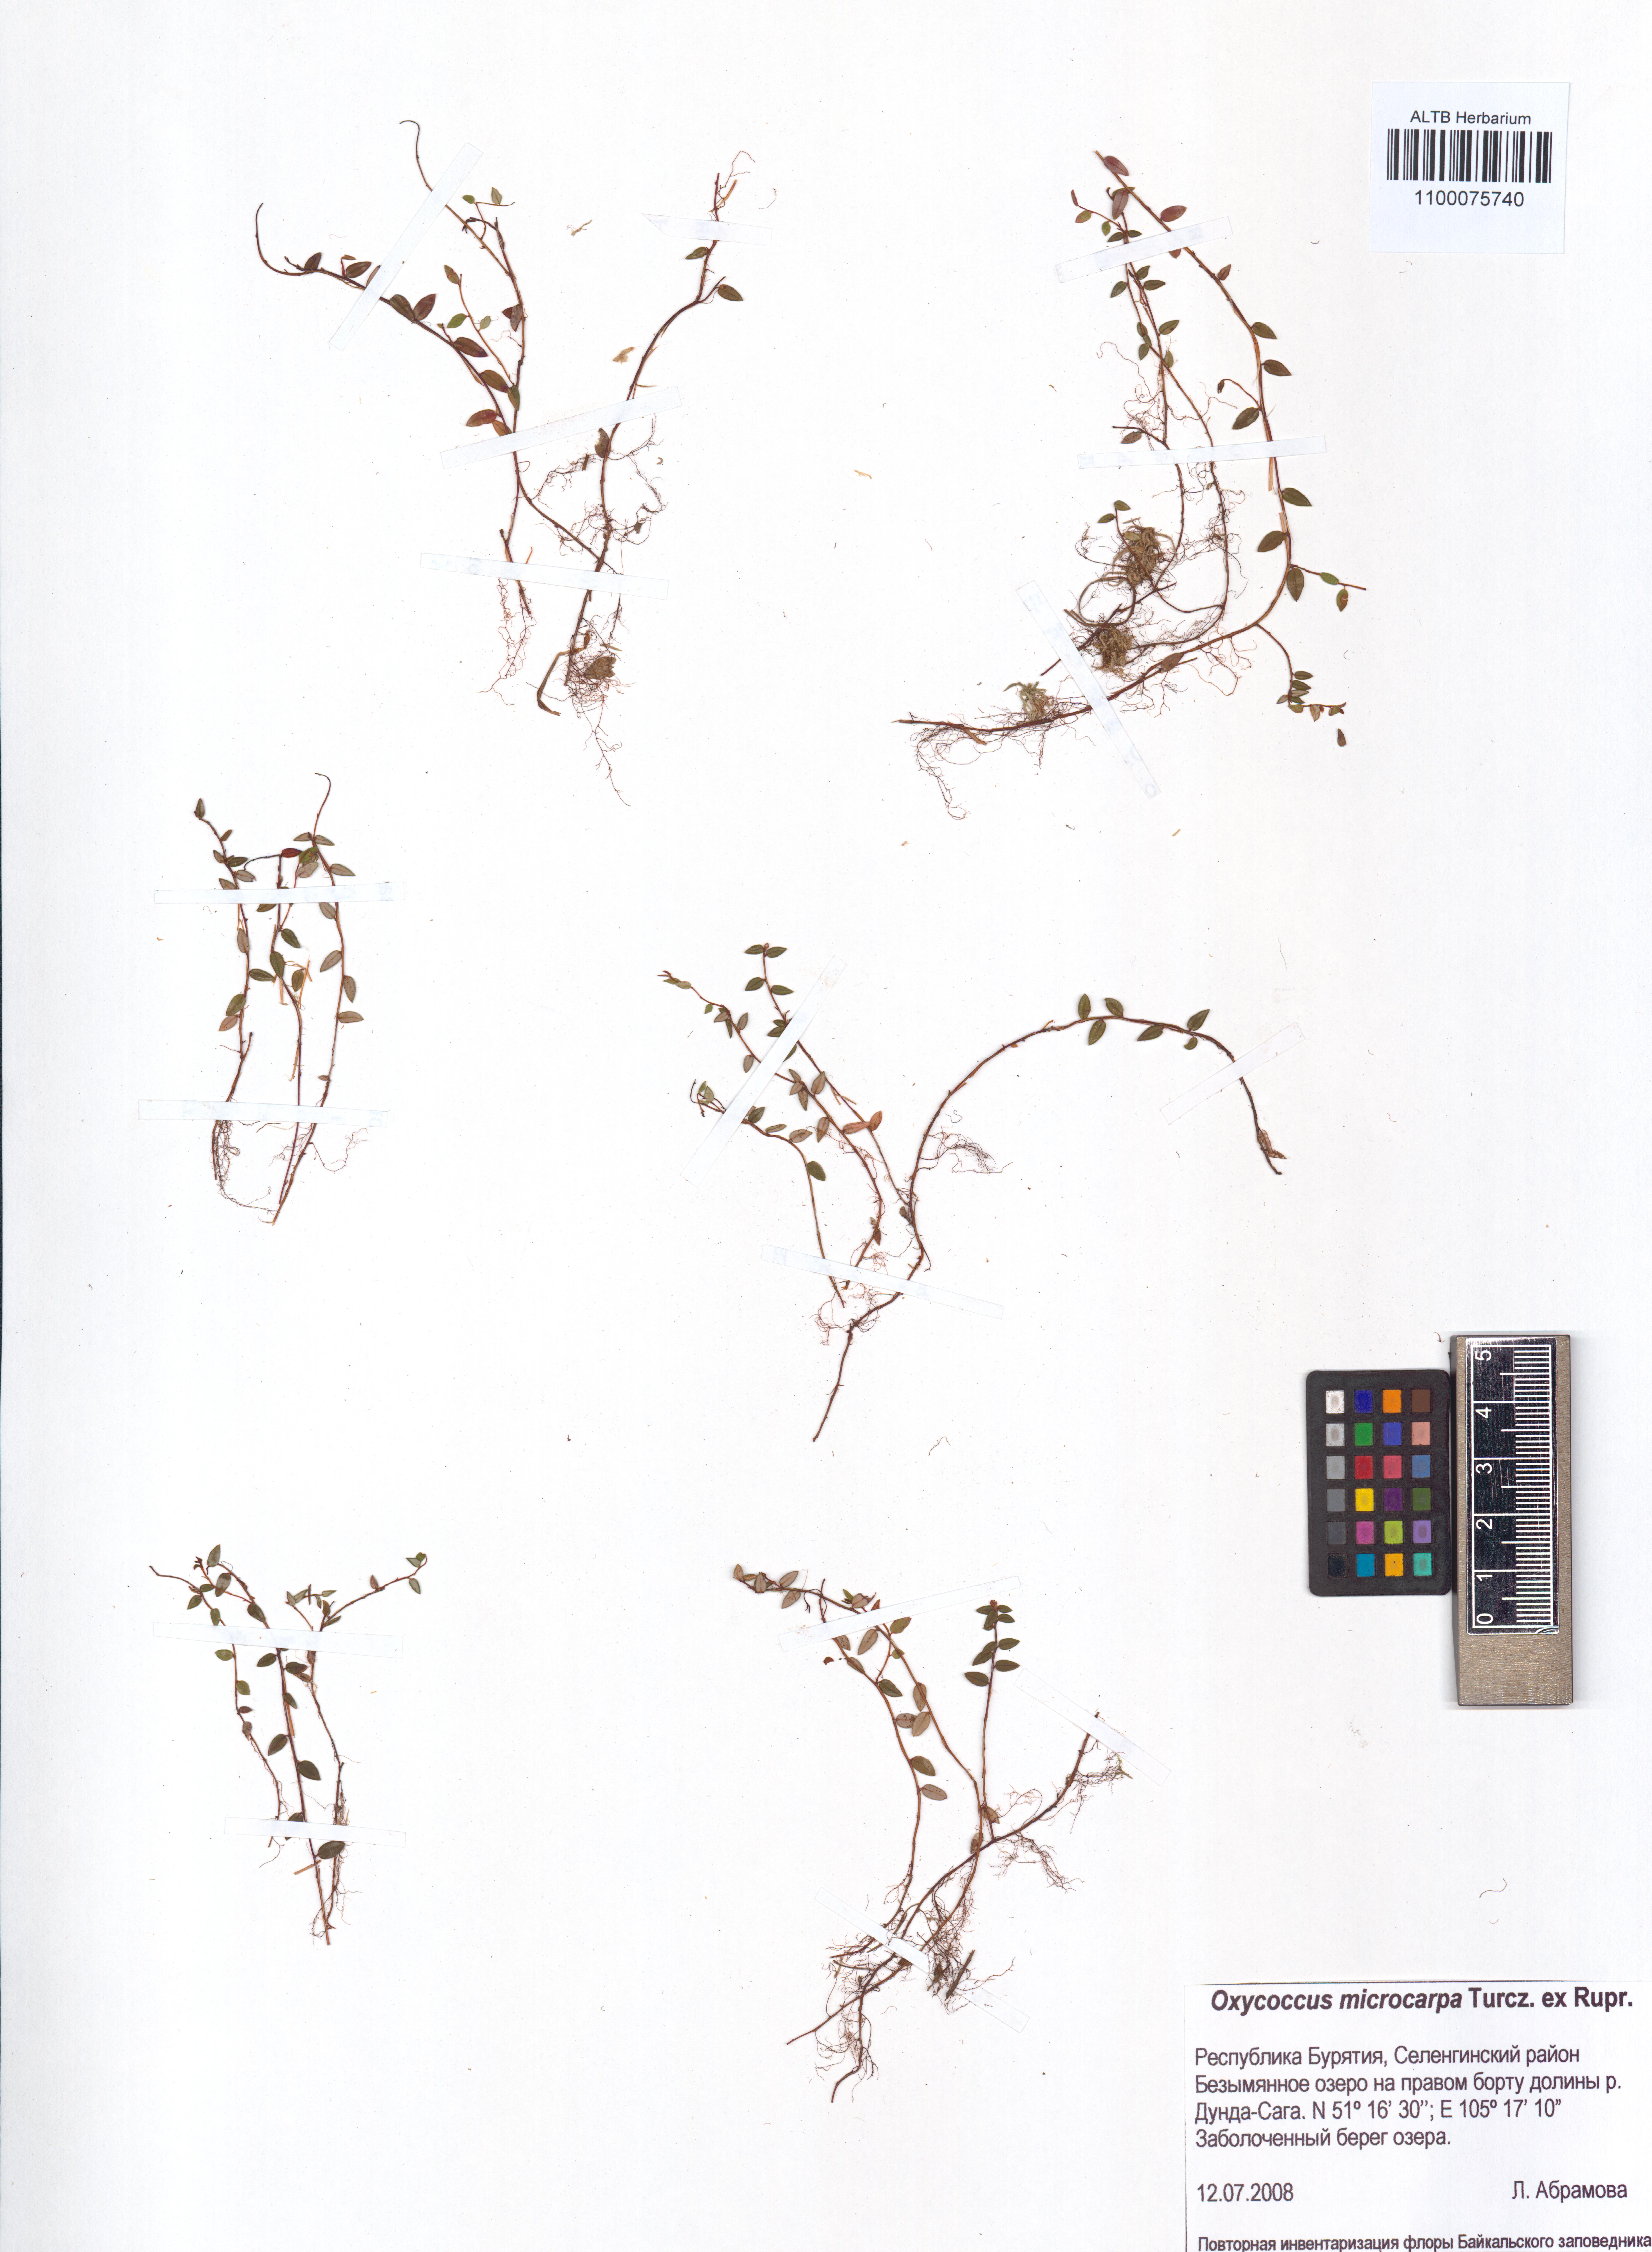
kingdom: Plantae
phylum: Tracheophyta
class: Magnoliopsida
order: Ericales
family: Ericaceae
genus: Vaccinium
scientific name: Vaccinium microcarpum
